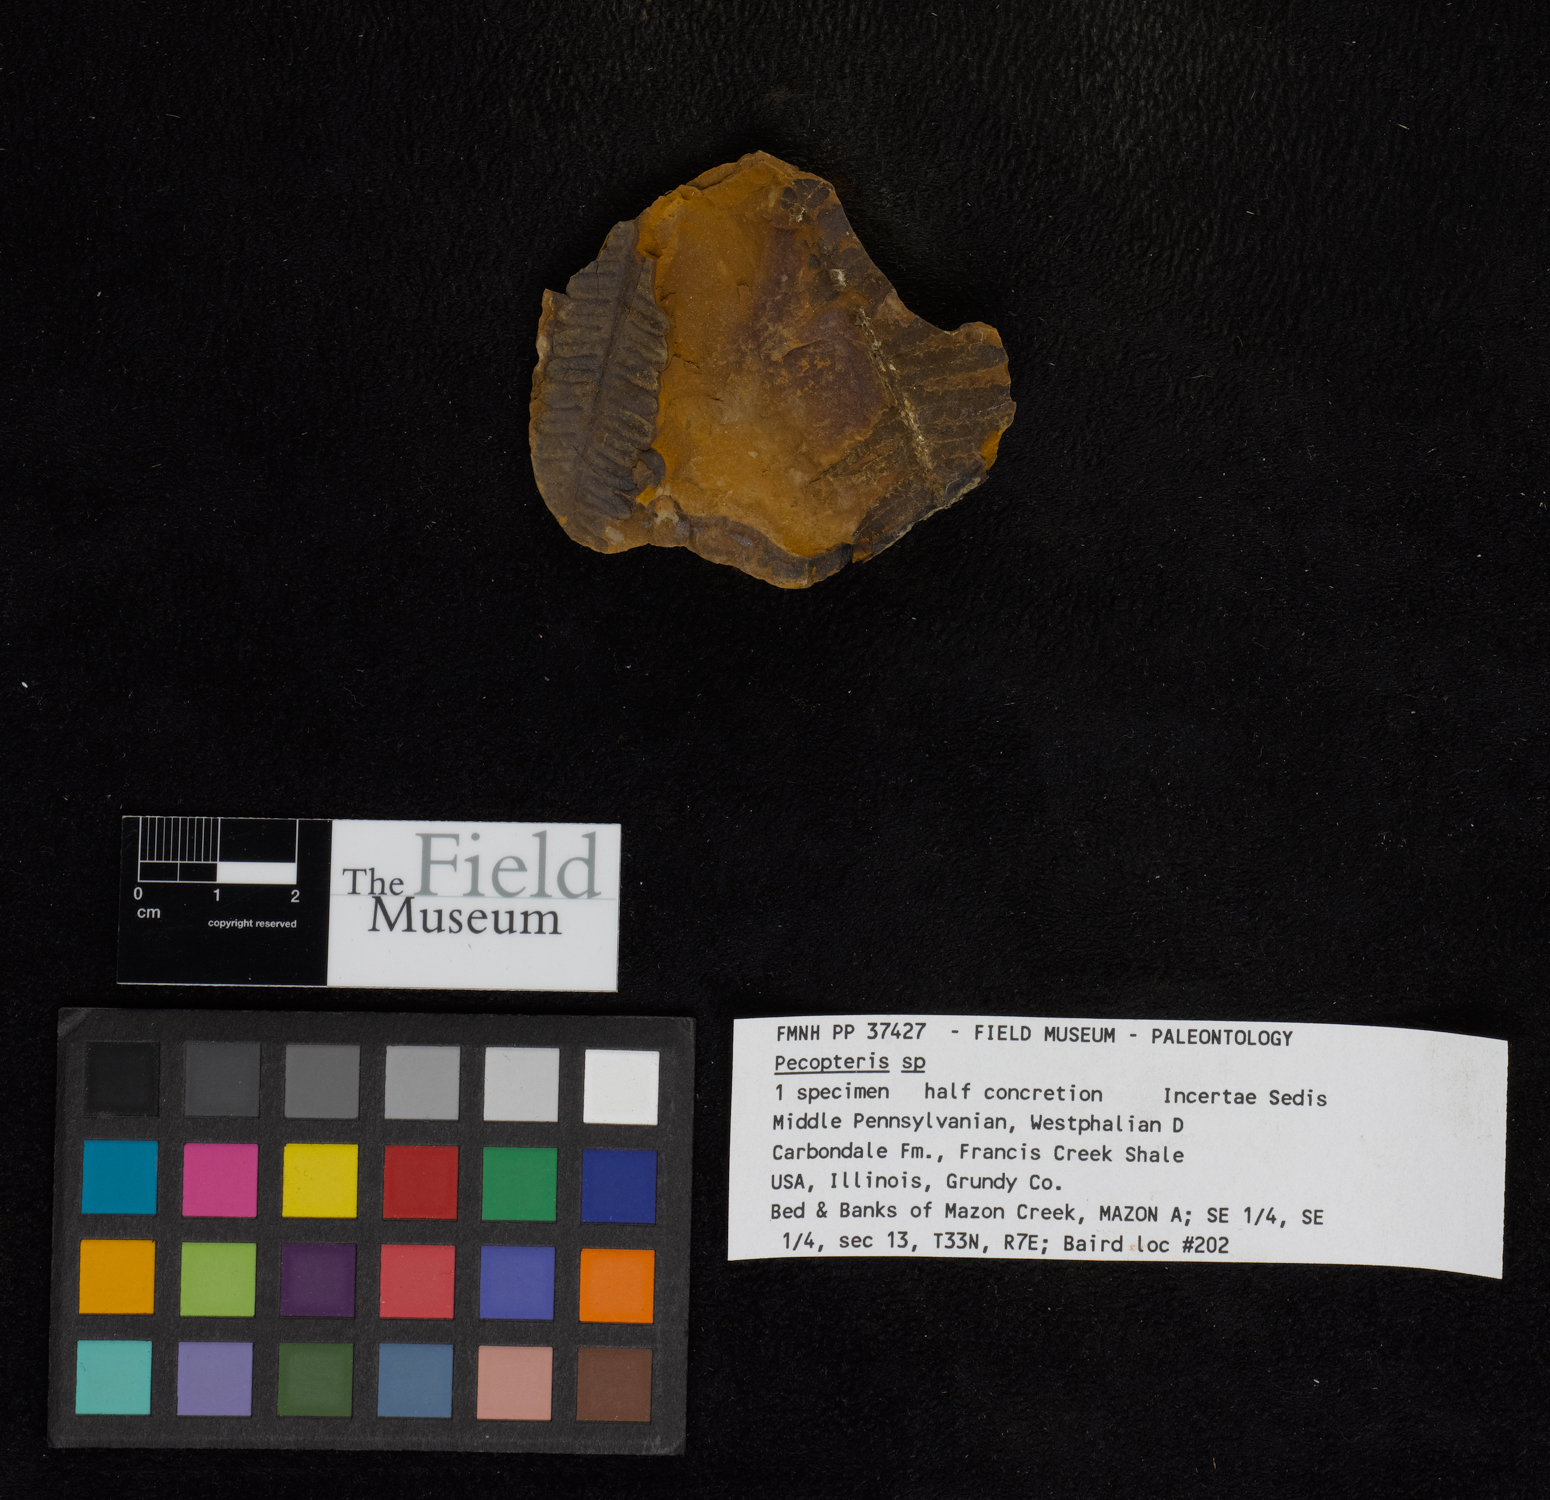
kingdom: Plantae
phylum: Tracheophyta
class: Polypodiopsida
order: Marattiales
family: Asterothecaceae
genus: Pecopteris
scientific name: Pecopteris
